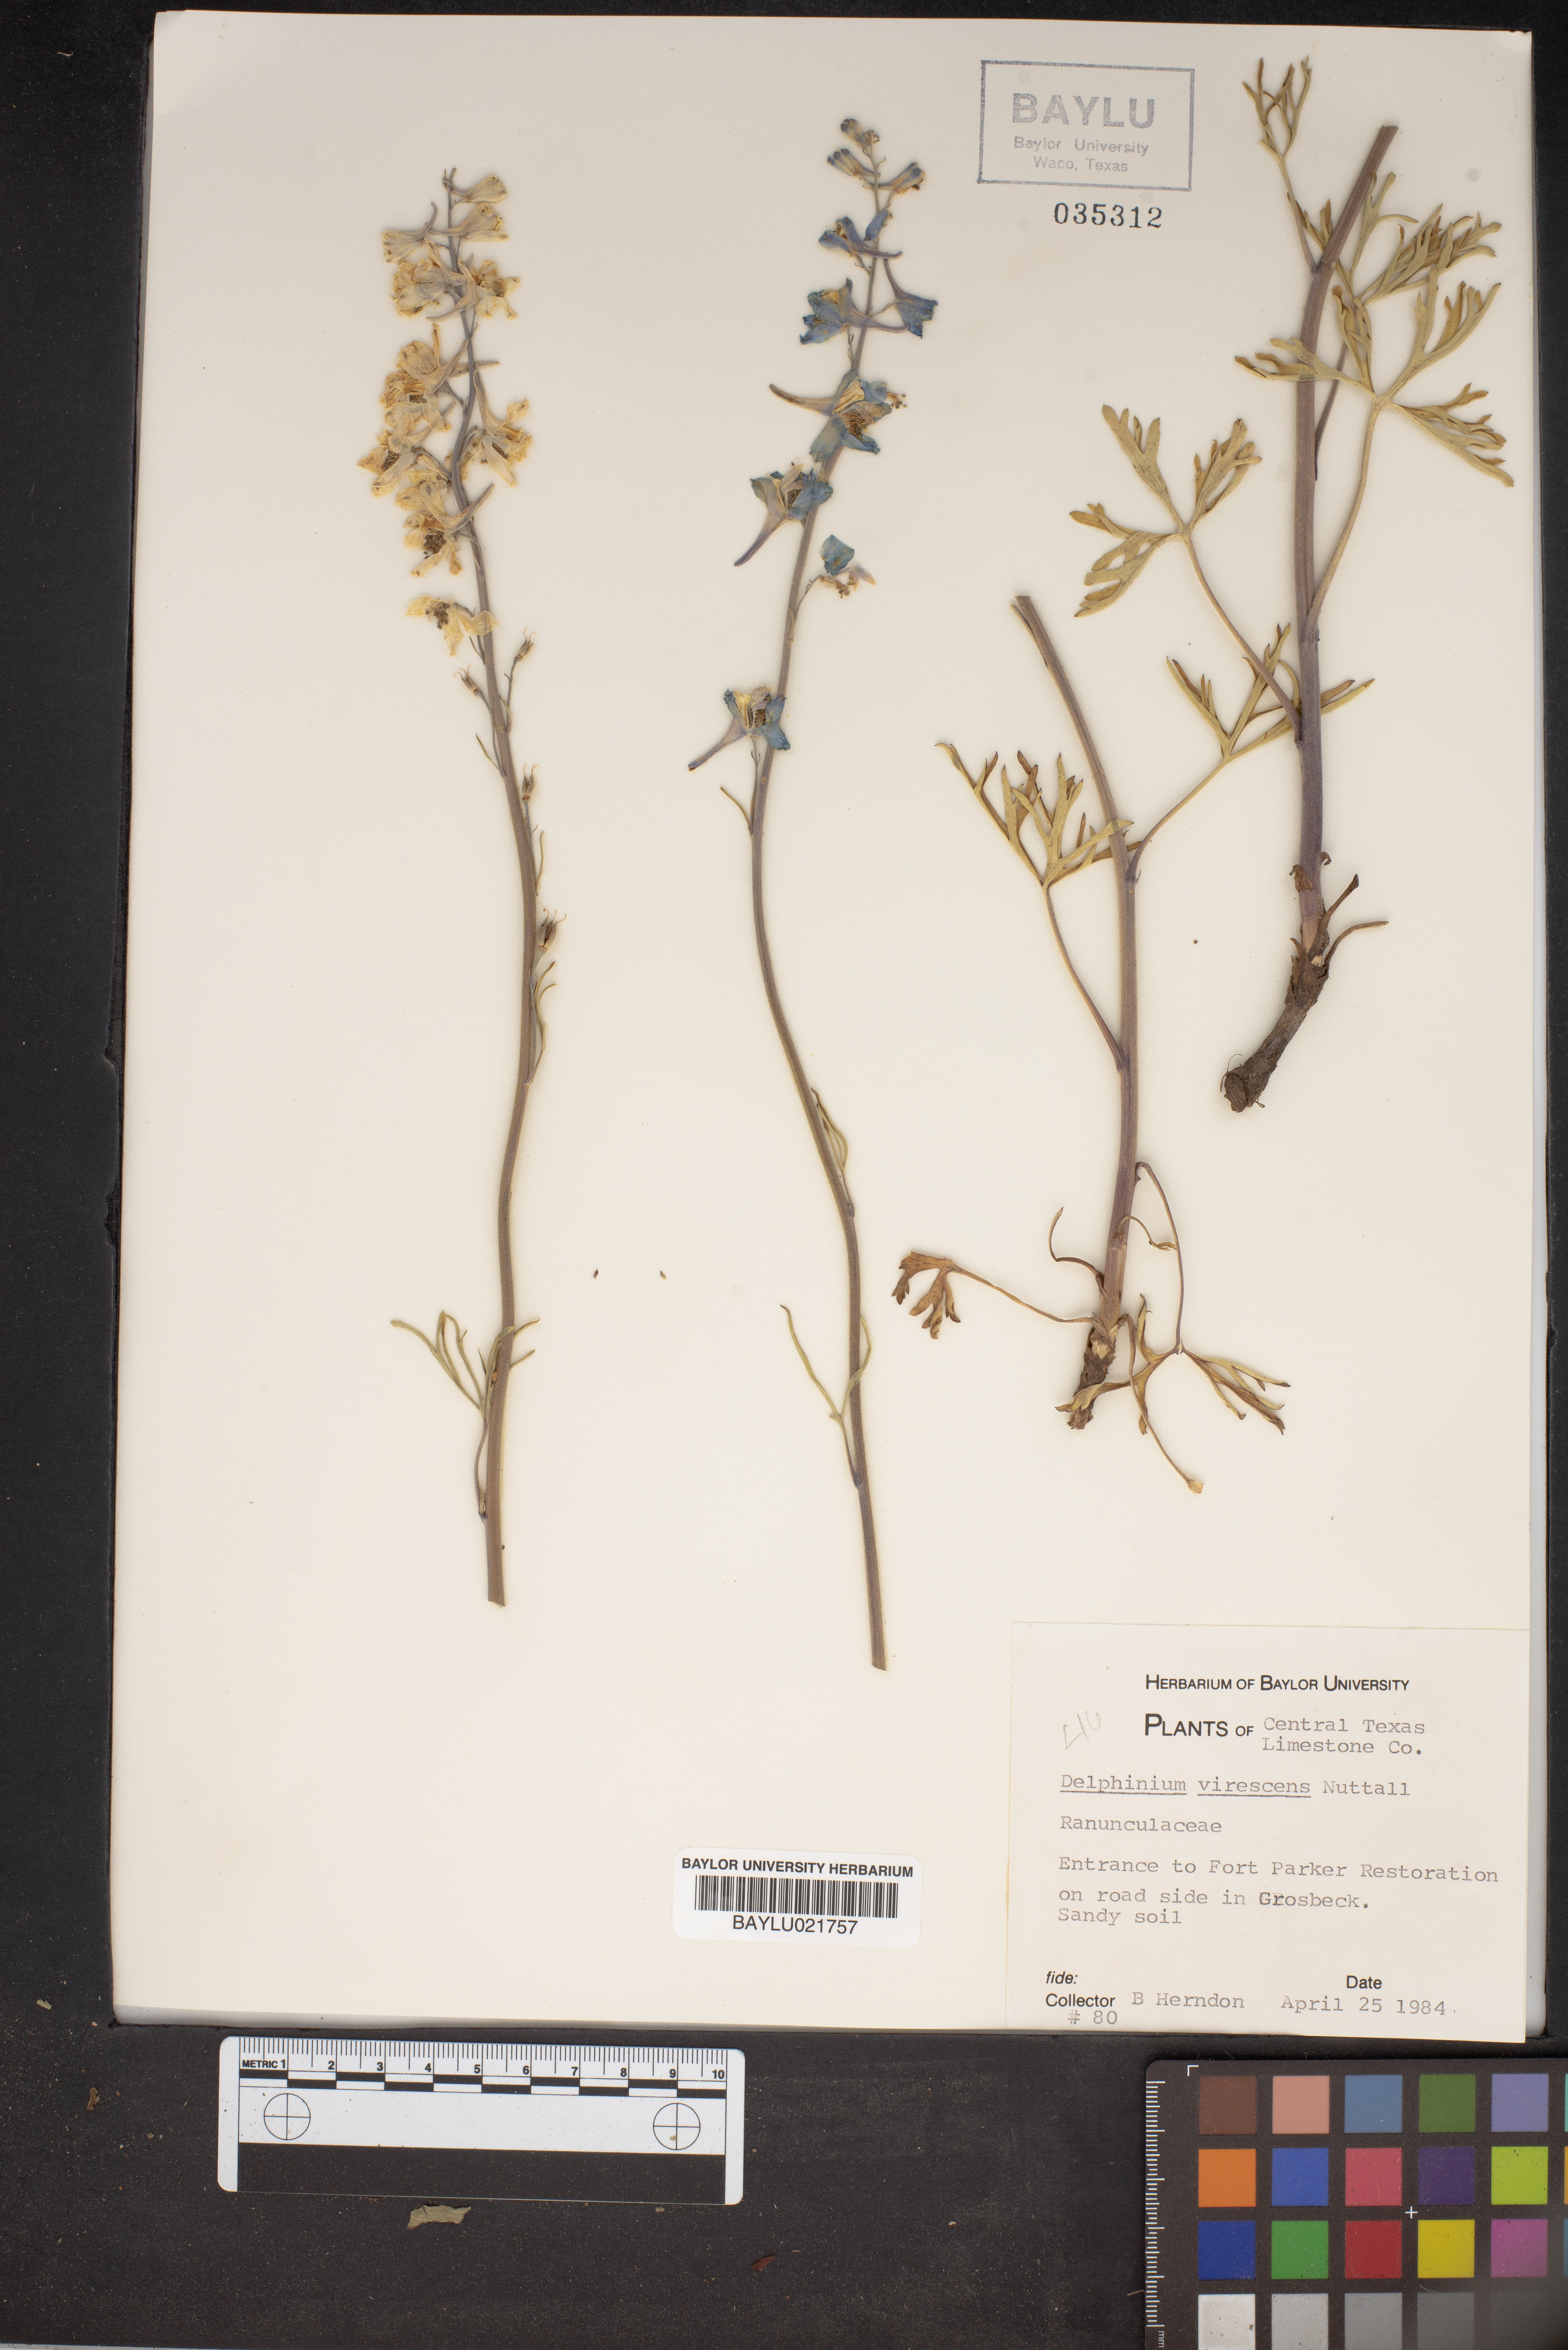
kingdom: Plantae
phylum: Tracheophyta
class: Magnoliopsida
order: Ranunculales
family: Ranunculaceae
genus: Delphinium
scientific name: Delphinium carolinianum
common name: Carolina larkspur
